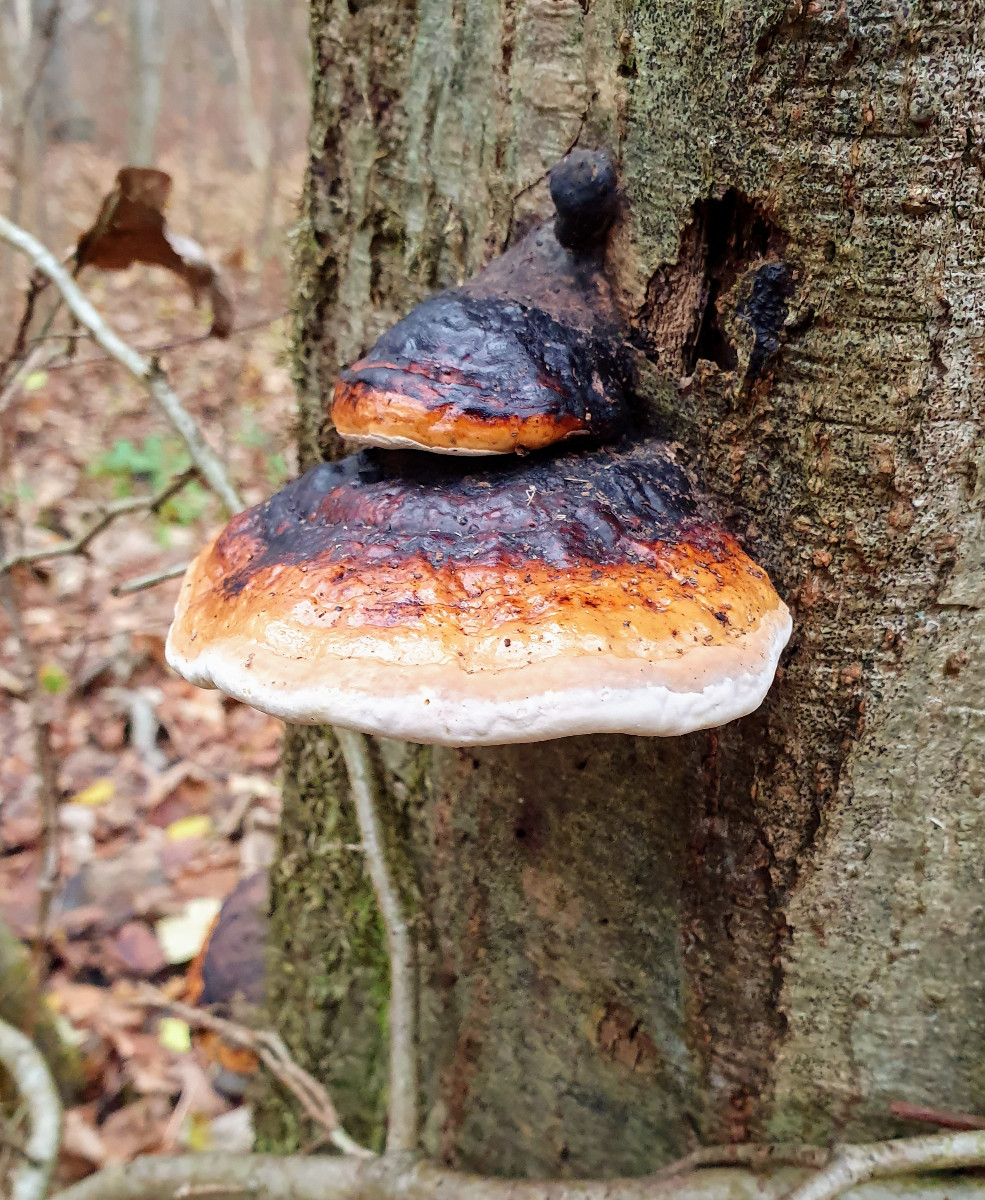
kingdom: Fungi
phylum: Basidiomycota
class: Agaricomycetes
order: Polyporales
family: Fomitopsidaceae
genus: Fomitopsis
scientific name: Fomitopsis pinicola
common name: randbæltet hovporesvamp
